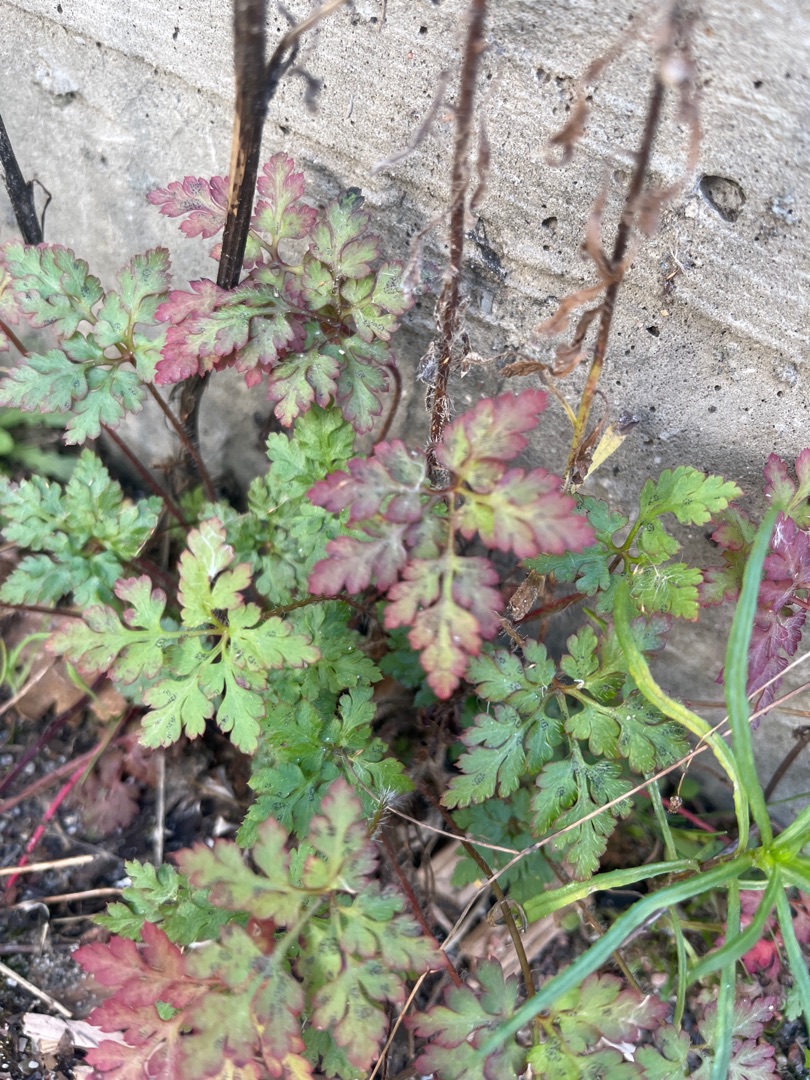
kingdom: Plantae
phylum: Tracheophyta
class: Magnoliopsida
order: Geraniales
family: Geraniaceae
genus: Geranium
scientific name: Geranium robertianum
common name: Stinkende storkenæb
